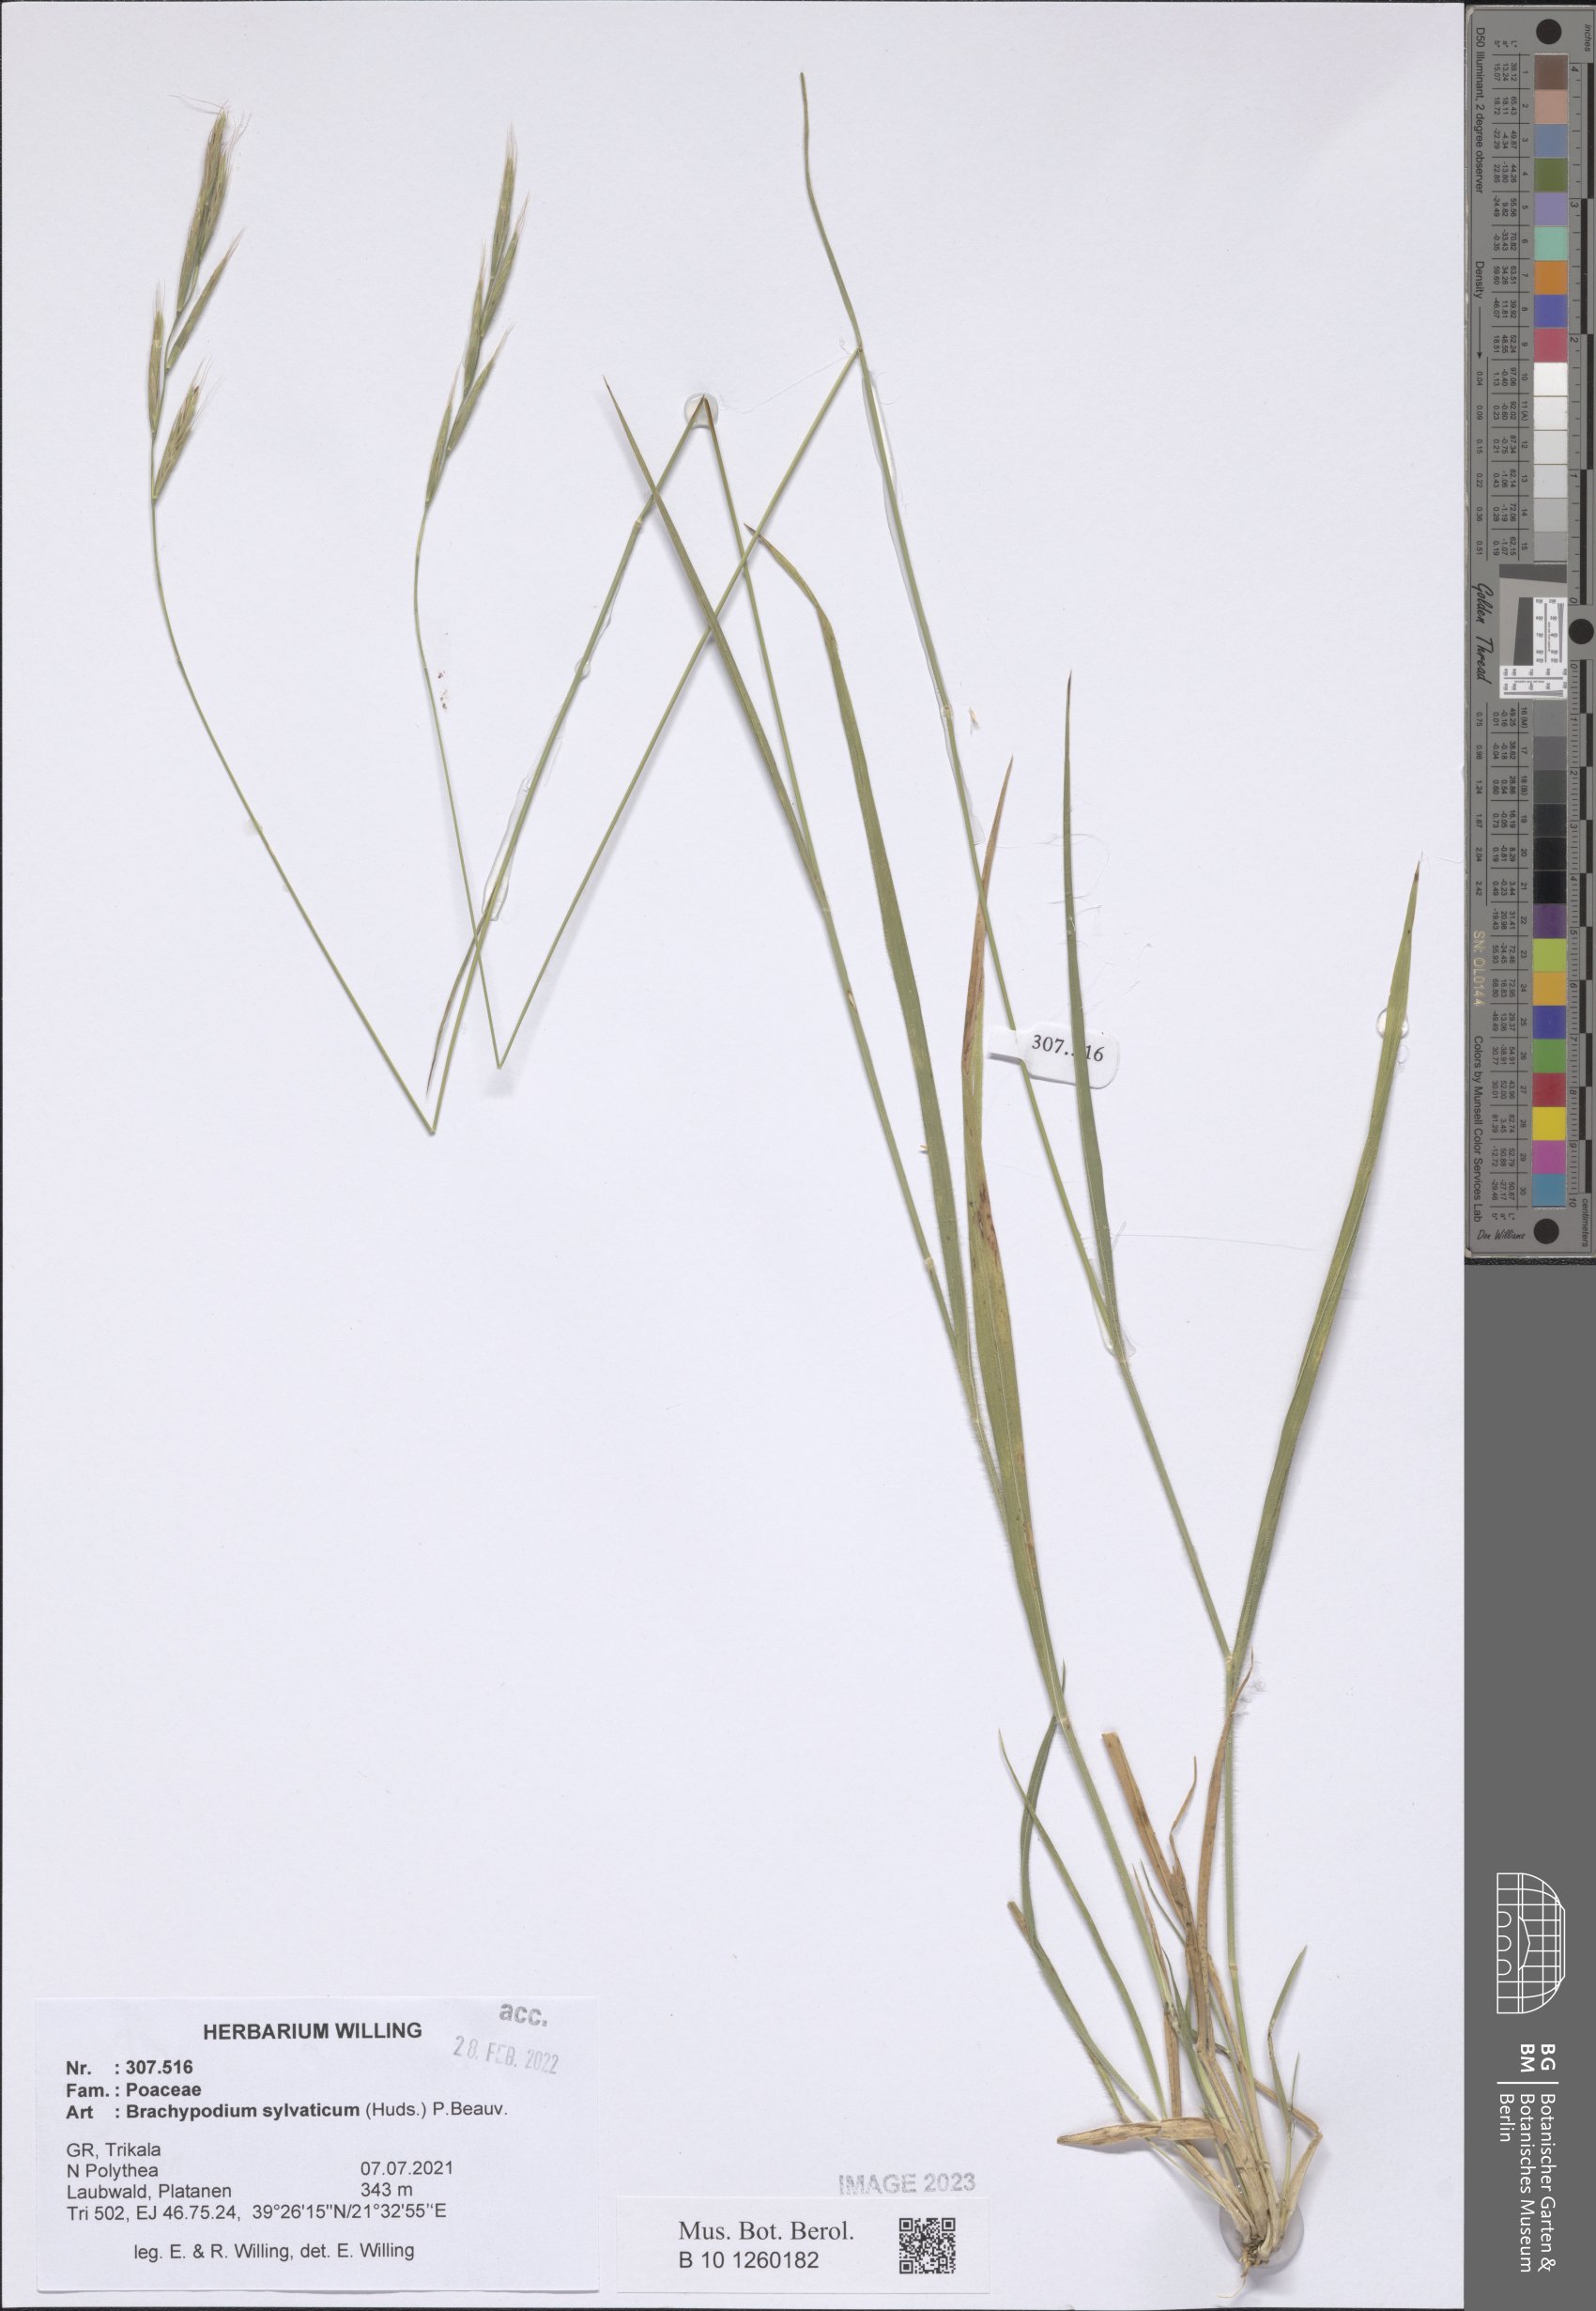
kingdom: Plantae
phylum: Tracheophyta
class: Liliopsida
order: Poales
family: Poaceae
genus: Brachypodium
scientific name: Brachypodium sylvaticum
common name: False-brome
